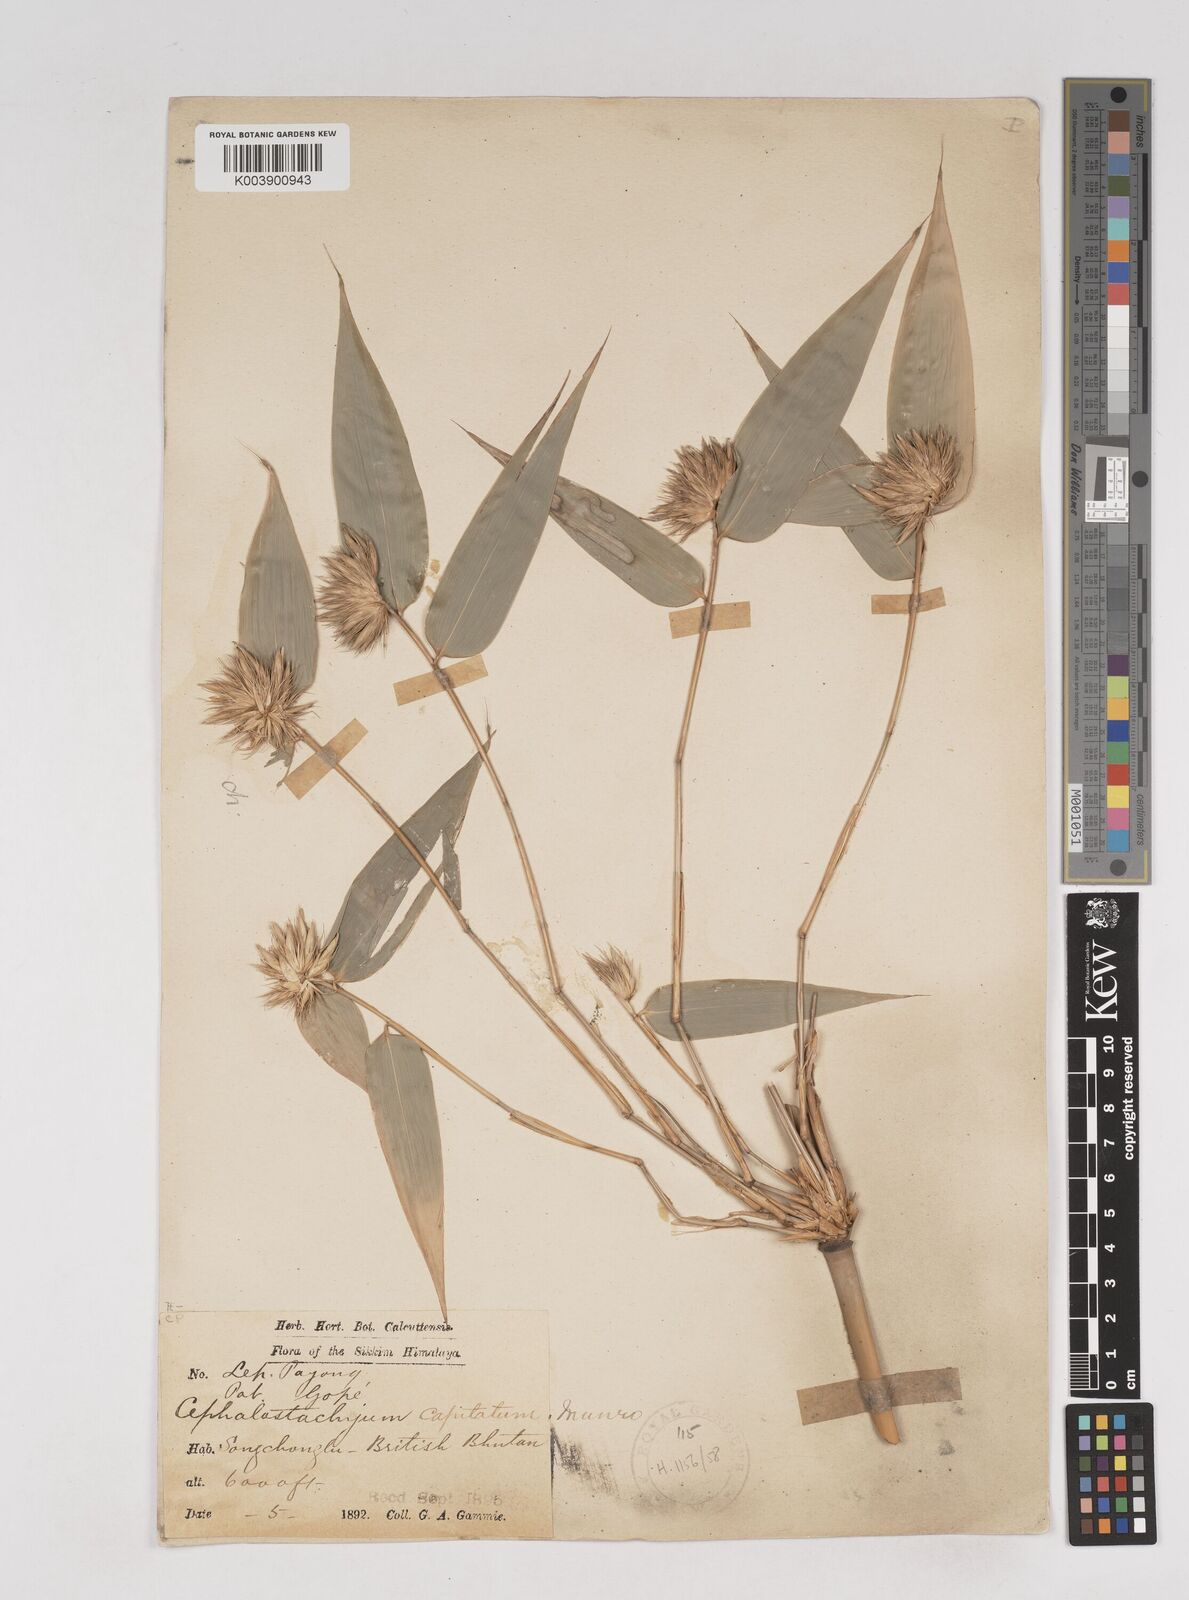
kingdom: Plantae
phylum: Tracheophyta
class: Liliopsida
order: Poales
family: Poaceae
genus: Cephalostachyum
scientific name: Cephalostachyum
